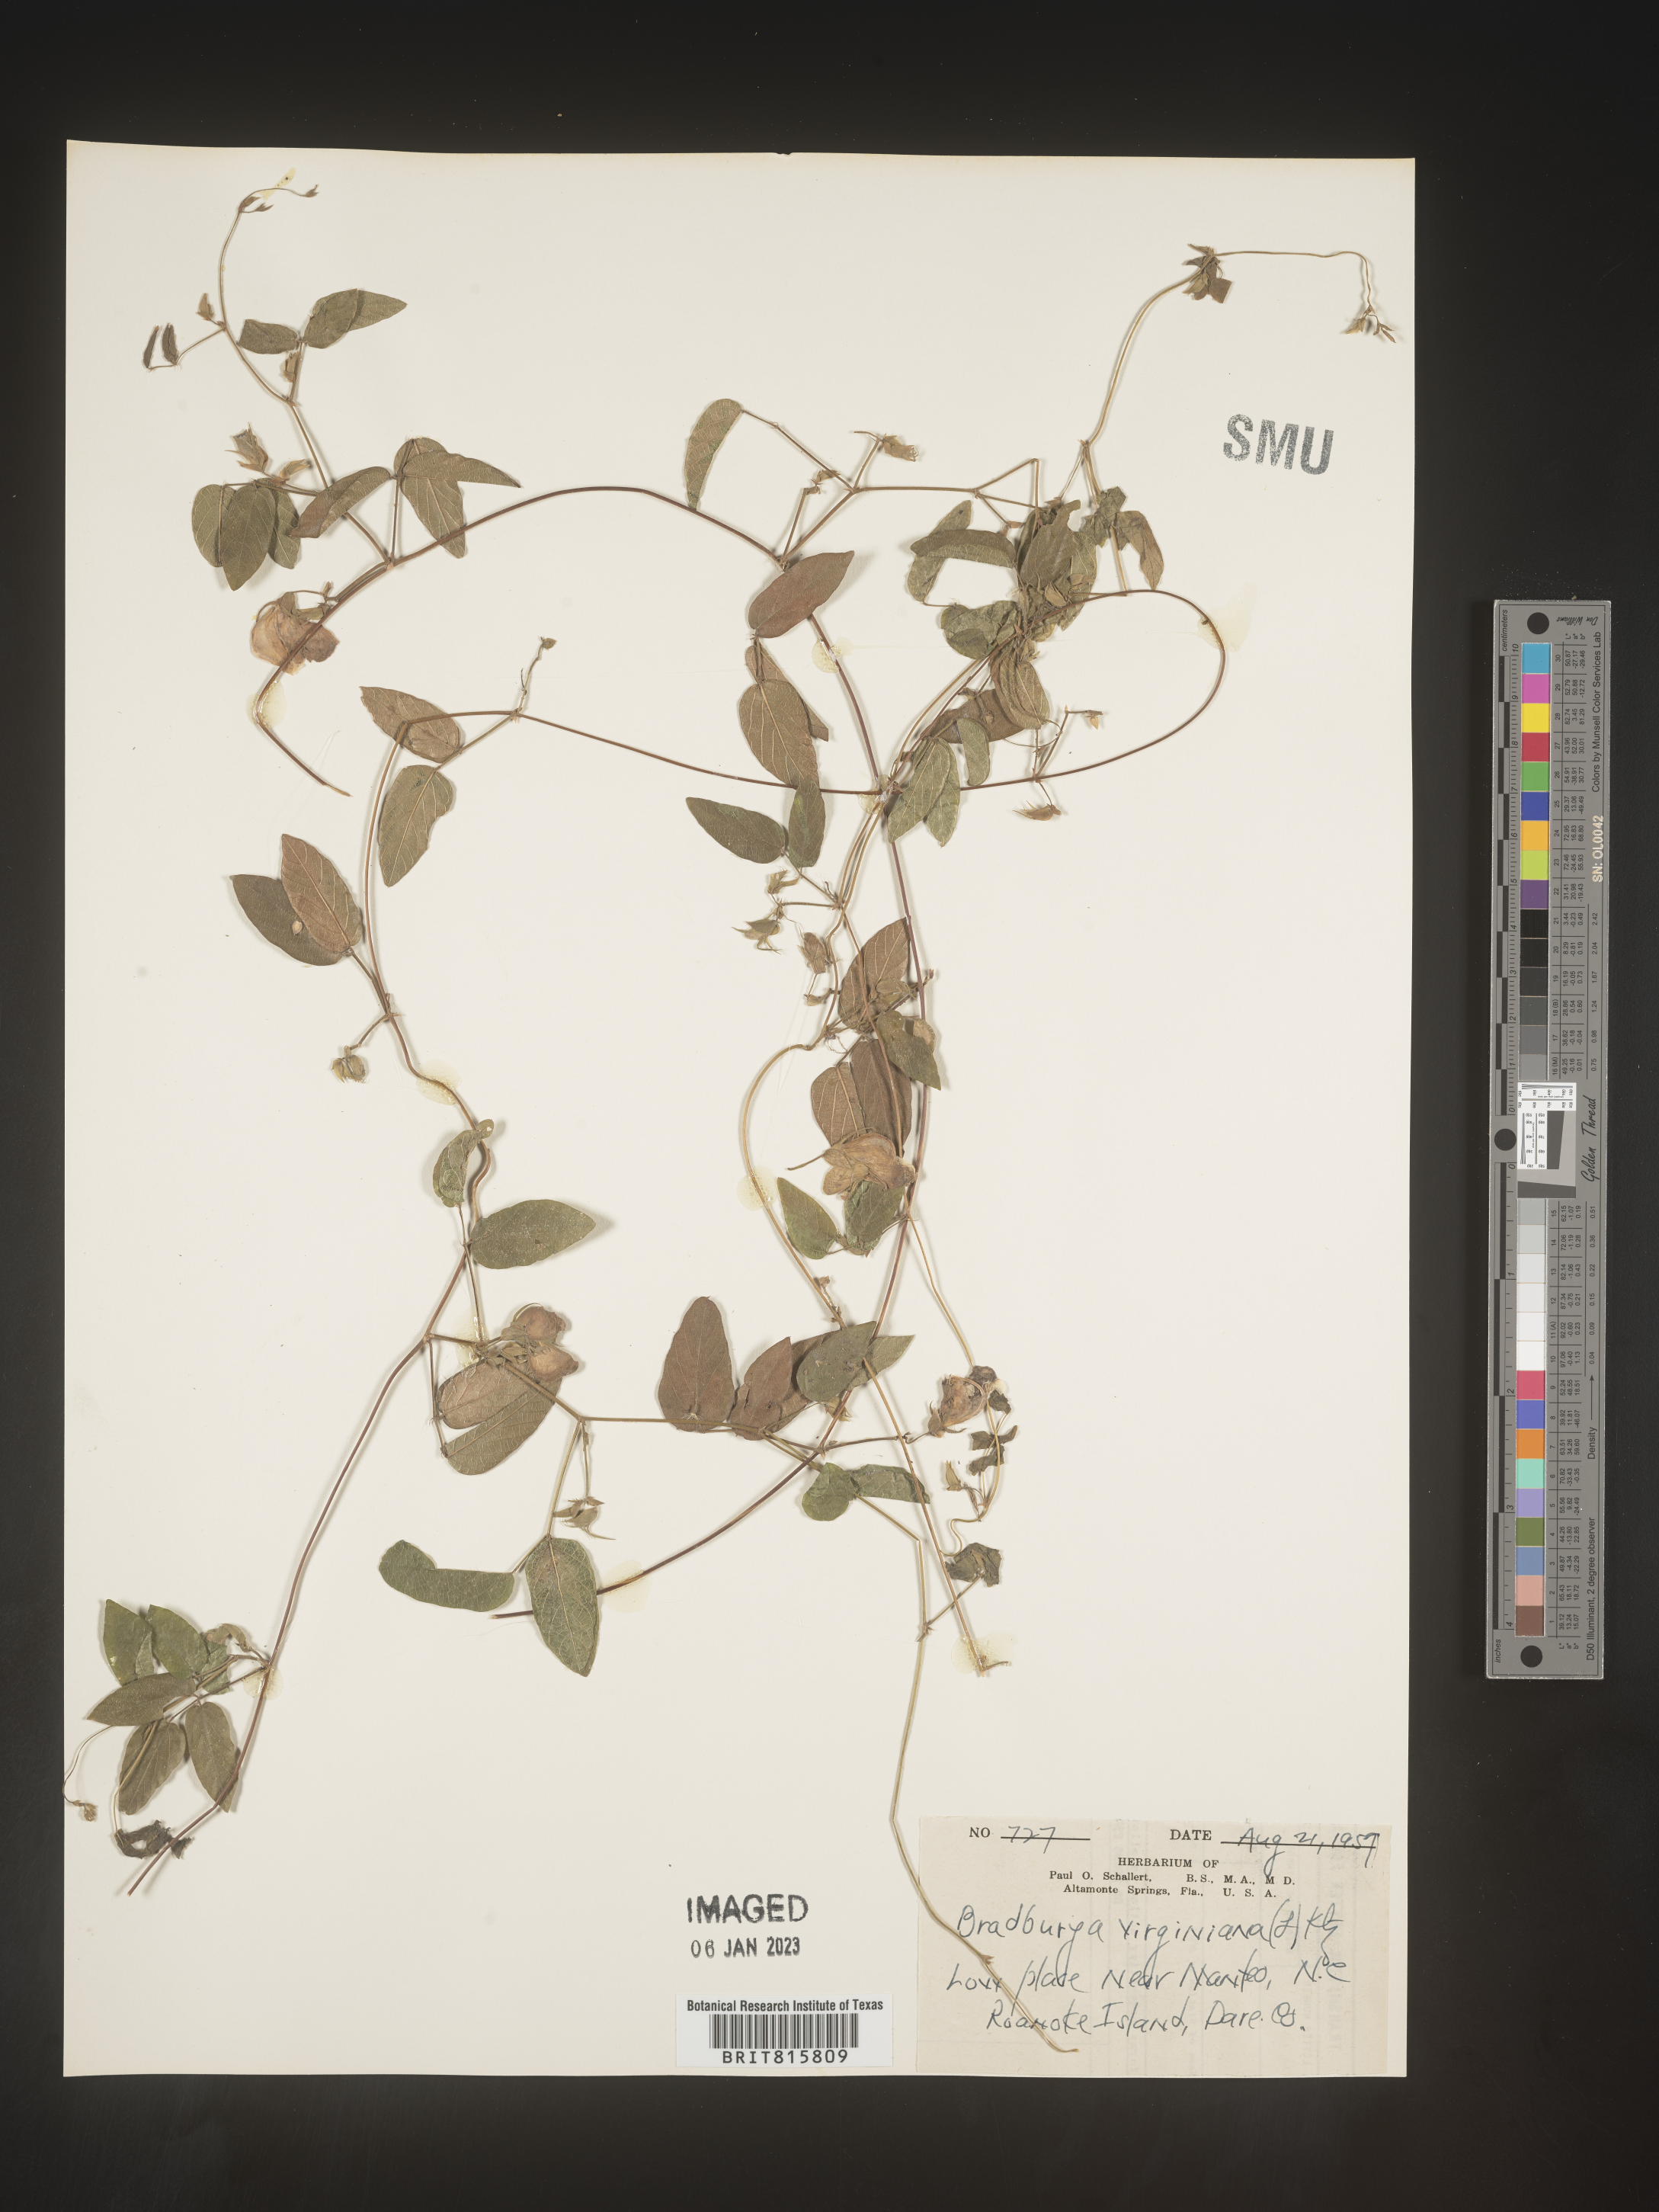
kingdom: Plantae
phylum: Tracheophyta
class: Magnoliopsida
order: Fabales
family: Fabaceae
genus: Centrosema
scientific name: Centrosema virginianum
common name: Butterfly-pea
